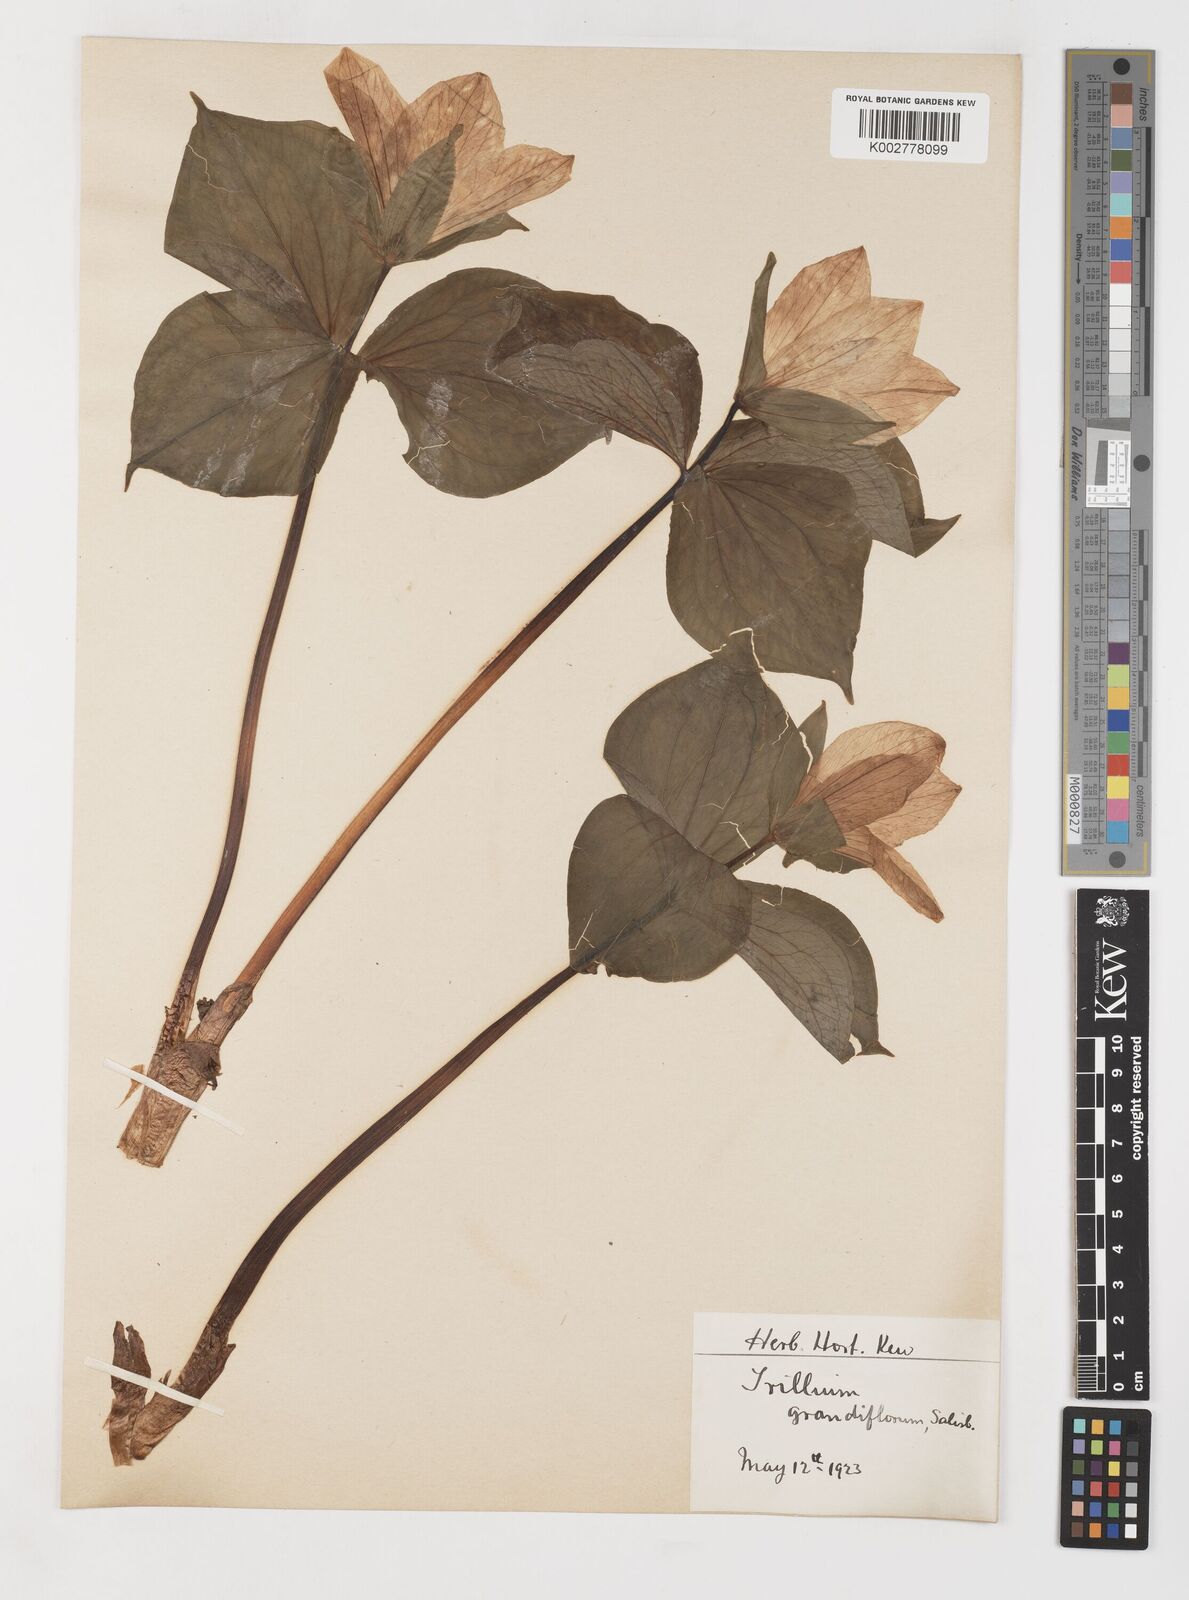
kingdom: Plantae
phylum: Tracheophyta
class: Liliopsida
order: Liliales
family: Melanthiaceae
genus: Trillium
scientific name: Trillium grandiflorum
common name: Great white trillium
